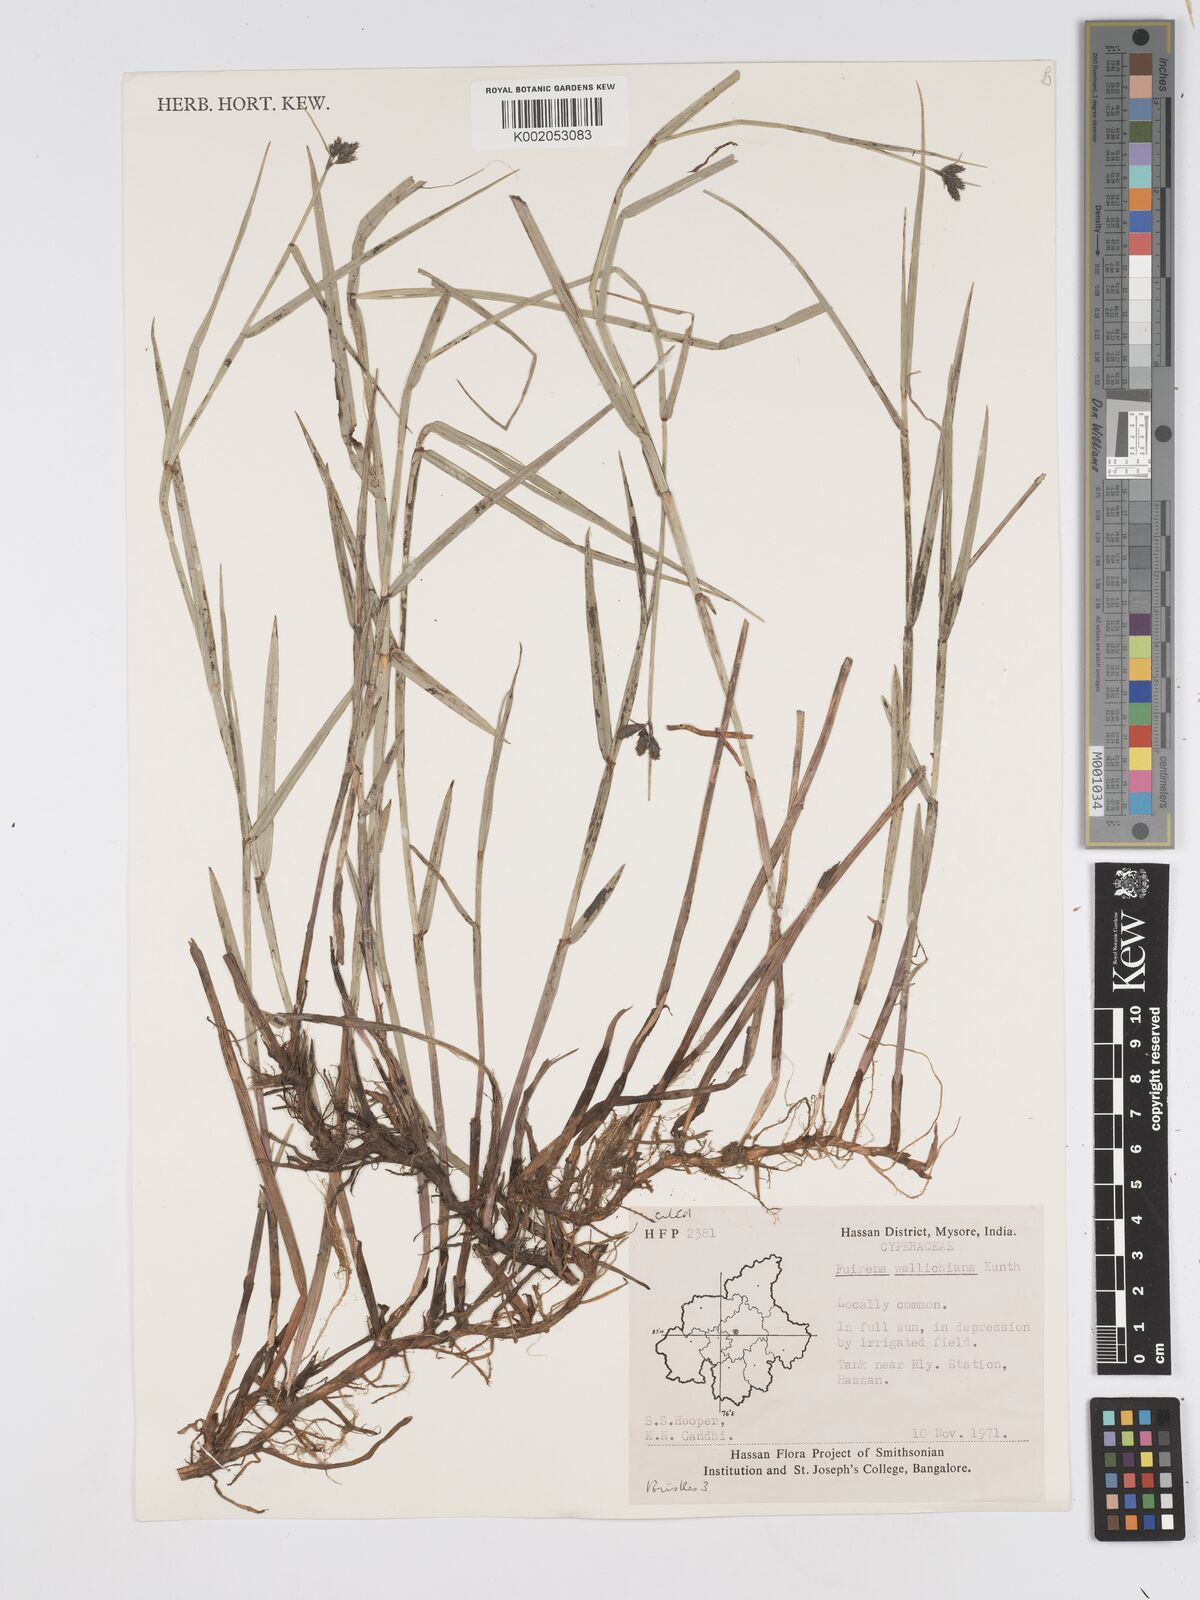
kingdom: Plantae
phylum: Tracheophyta
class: Liliopsida
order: Poales
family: Cyperaceae
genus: Fuirena
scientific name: Fuirena cuspidata
